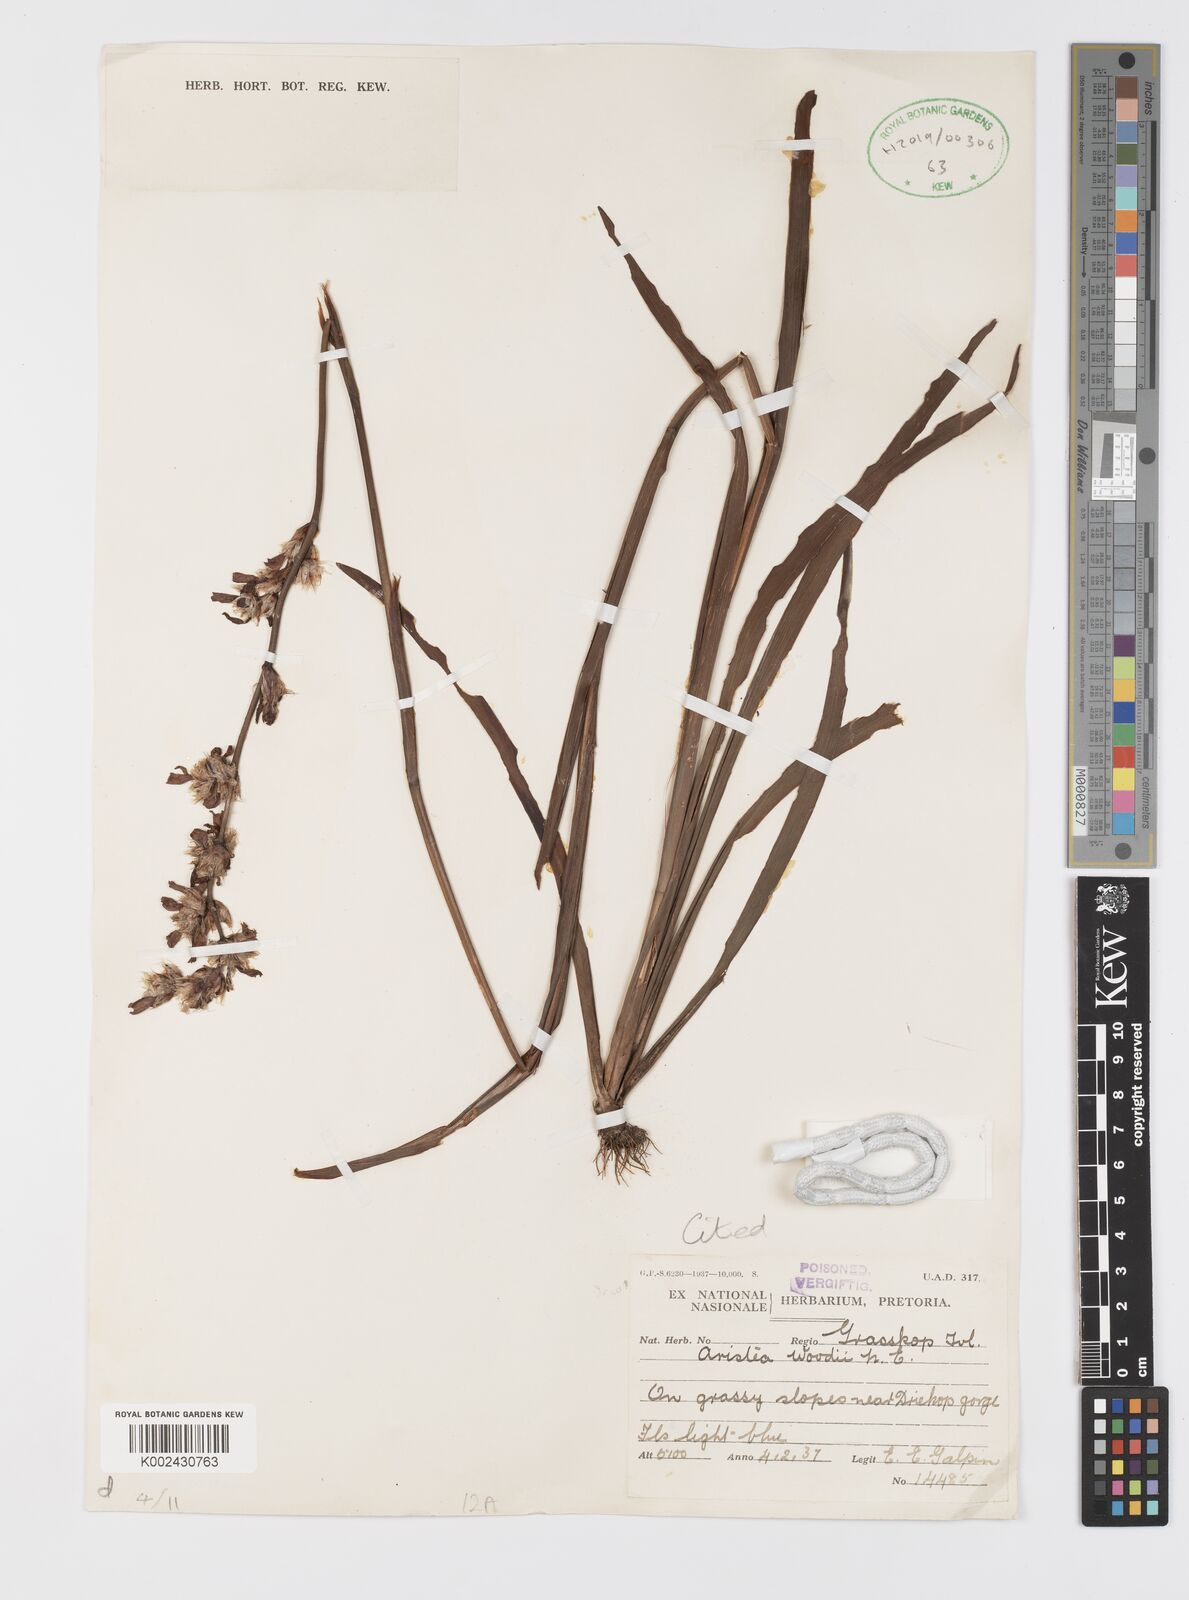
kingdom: Plantae
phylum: Tracheophyta
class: Liliopsida
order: Asparagales
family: Iridaceae
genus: Aristea
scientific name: Aristea torulosa
